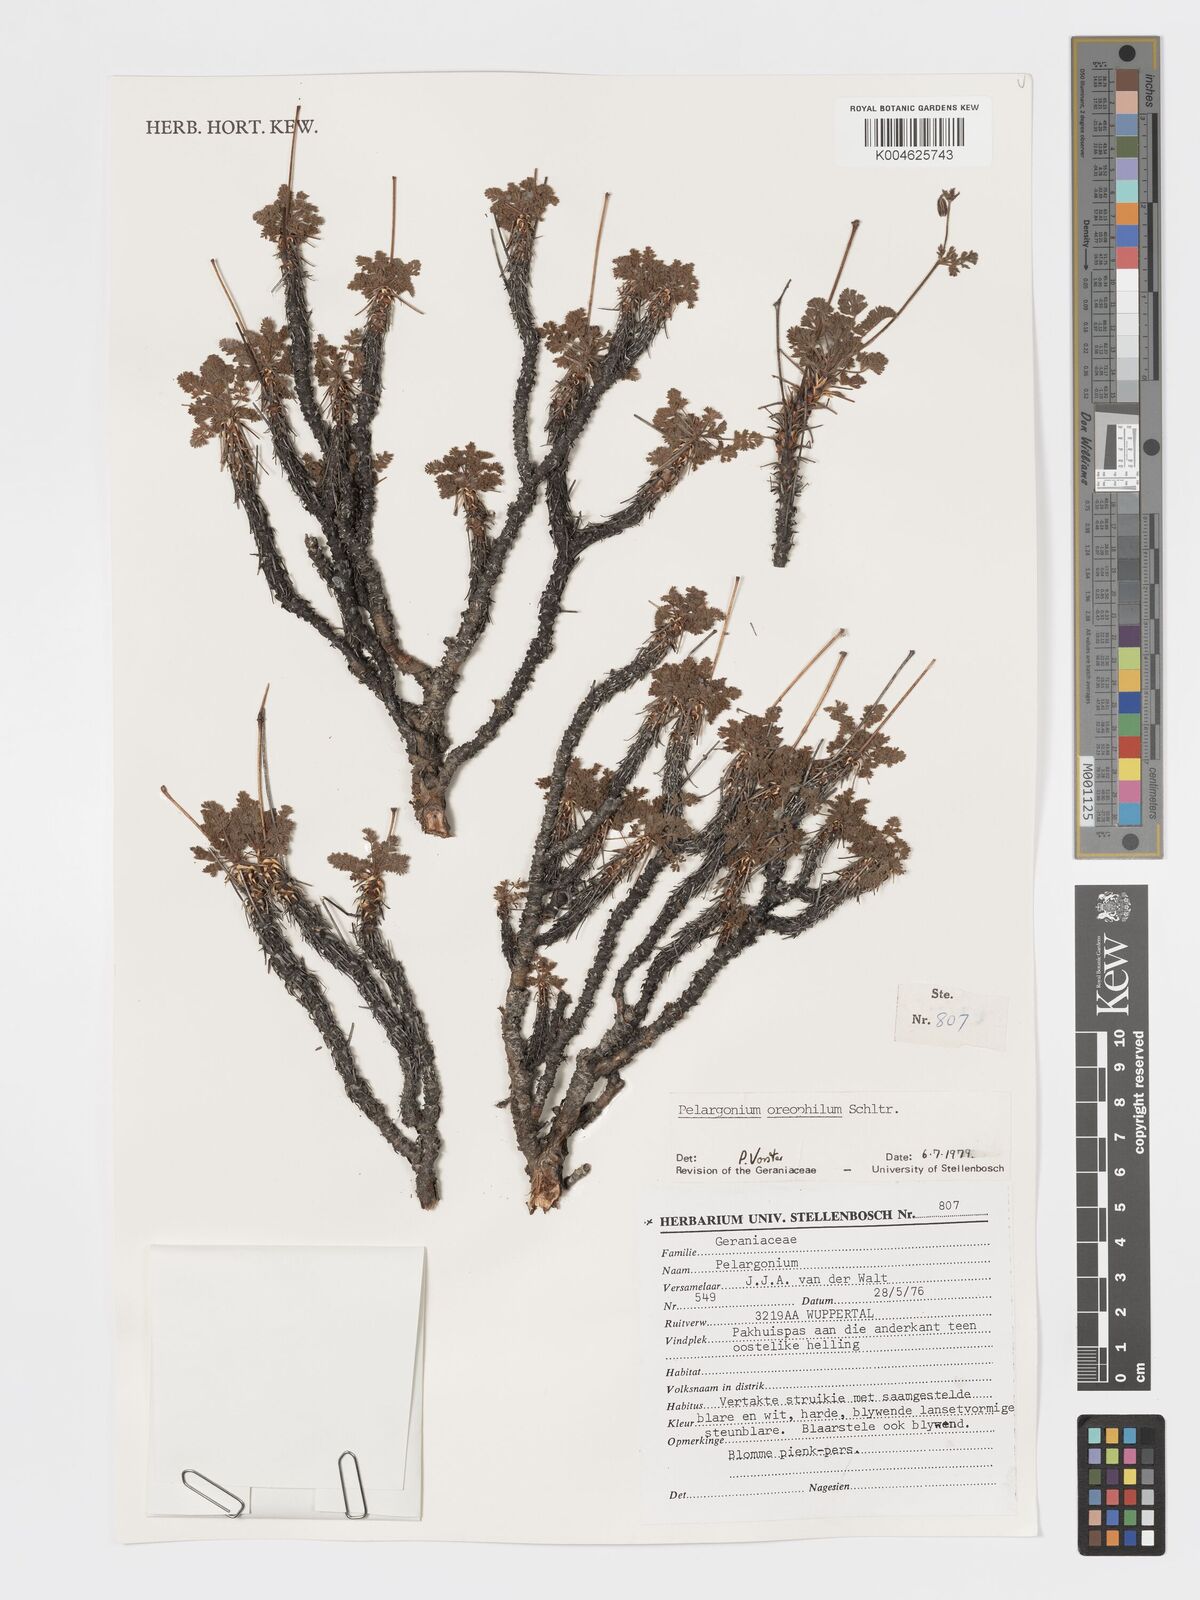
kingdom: Plantae
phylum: Tracheophyta
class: Magnoliopsida
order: Geraniales
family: Geraniaceae
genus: Pelargonium
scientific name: Pelargonium oreophilum
